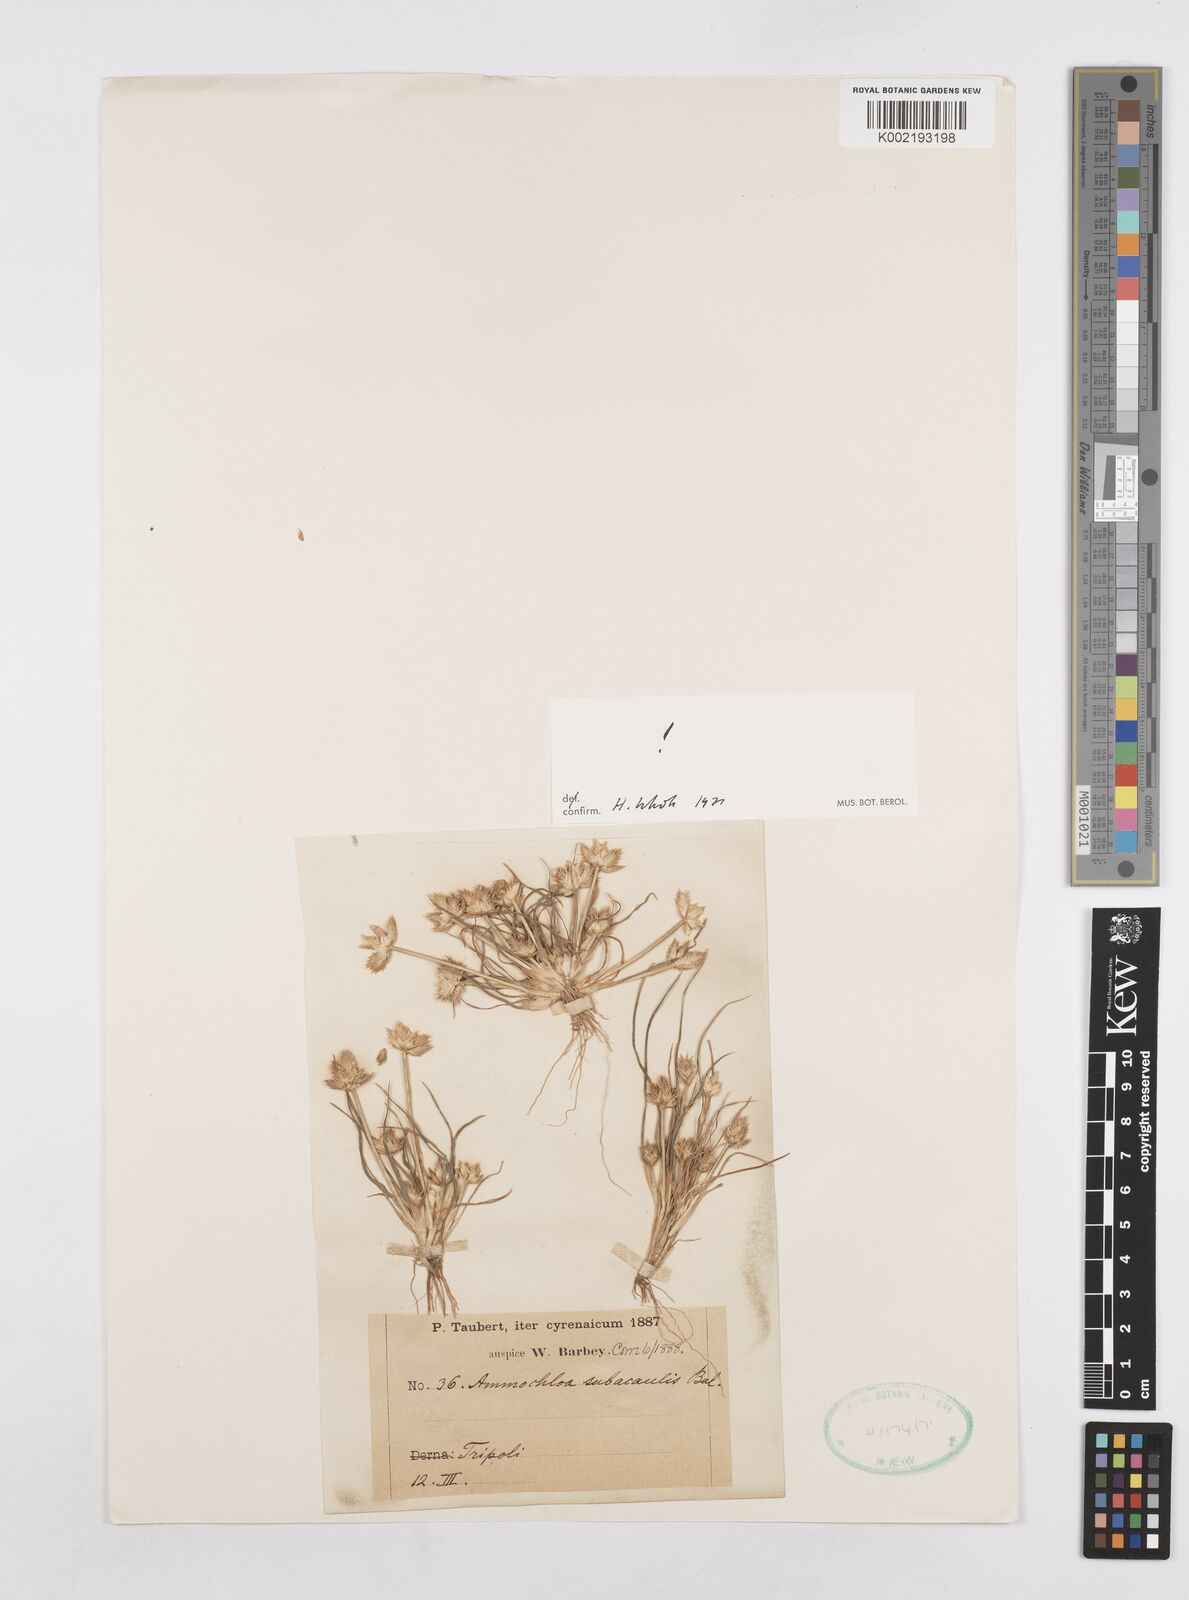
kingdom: Plantae
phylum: Tracheophyta
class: Liliopsida
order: Poales
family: Poaceae
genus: Ammochloa
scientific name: Ammochloa palaestina
